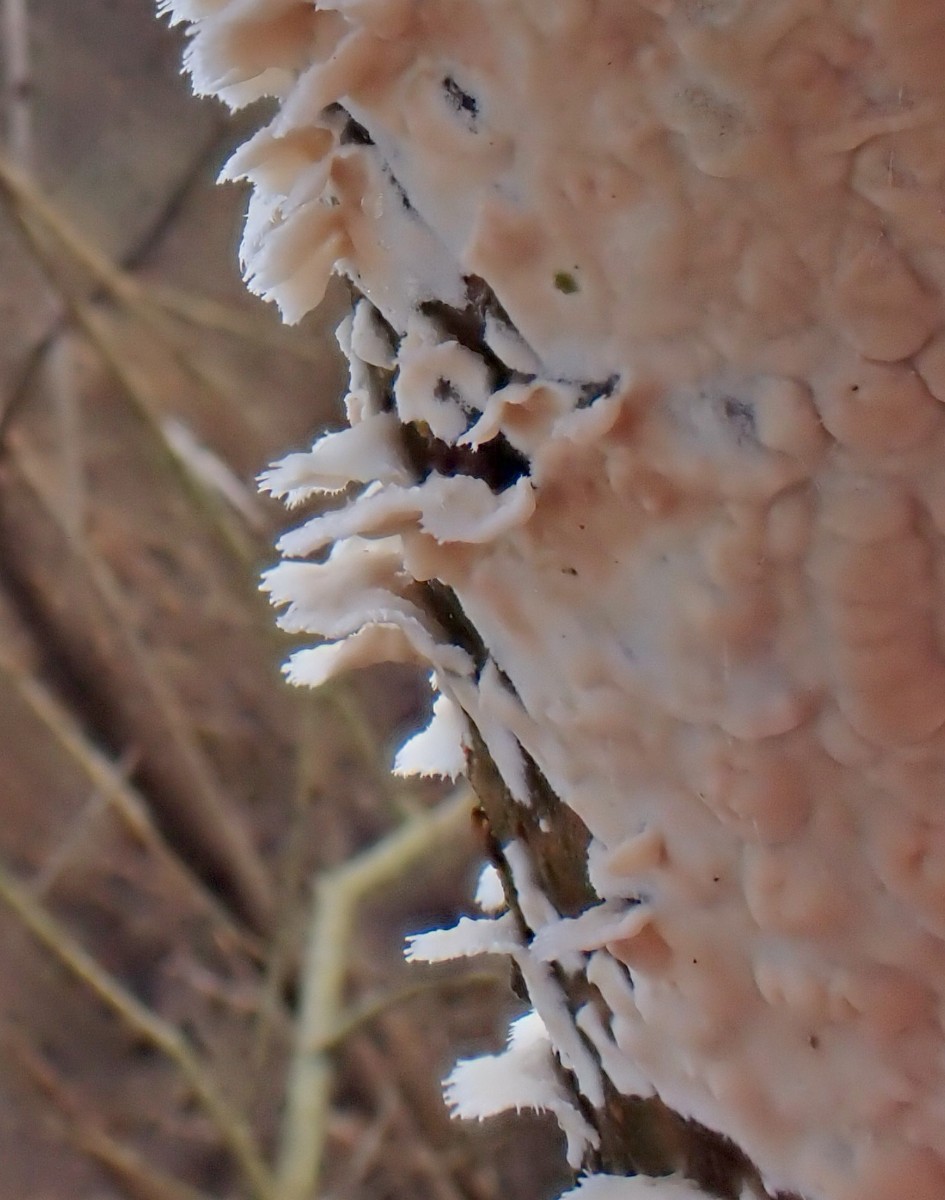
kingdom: Fungi
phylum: Basidiomycota
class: Agaricomycetes
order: Agaricales
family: Physalacriaceae
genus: Cylindrobasidium
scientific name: Cylindrobasidium evolvens
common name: sprækkehinde
